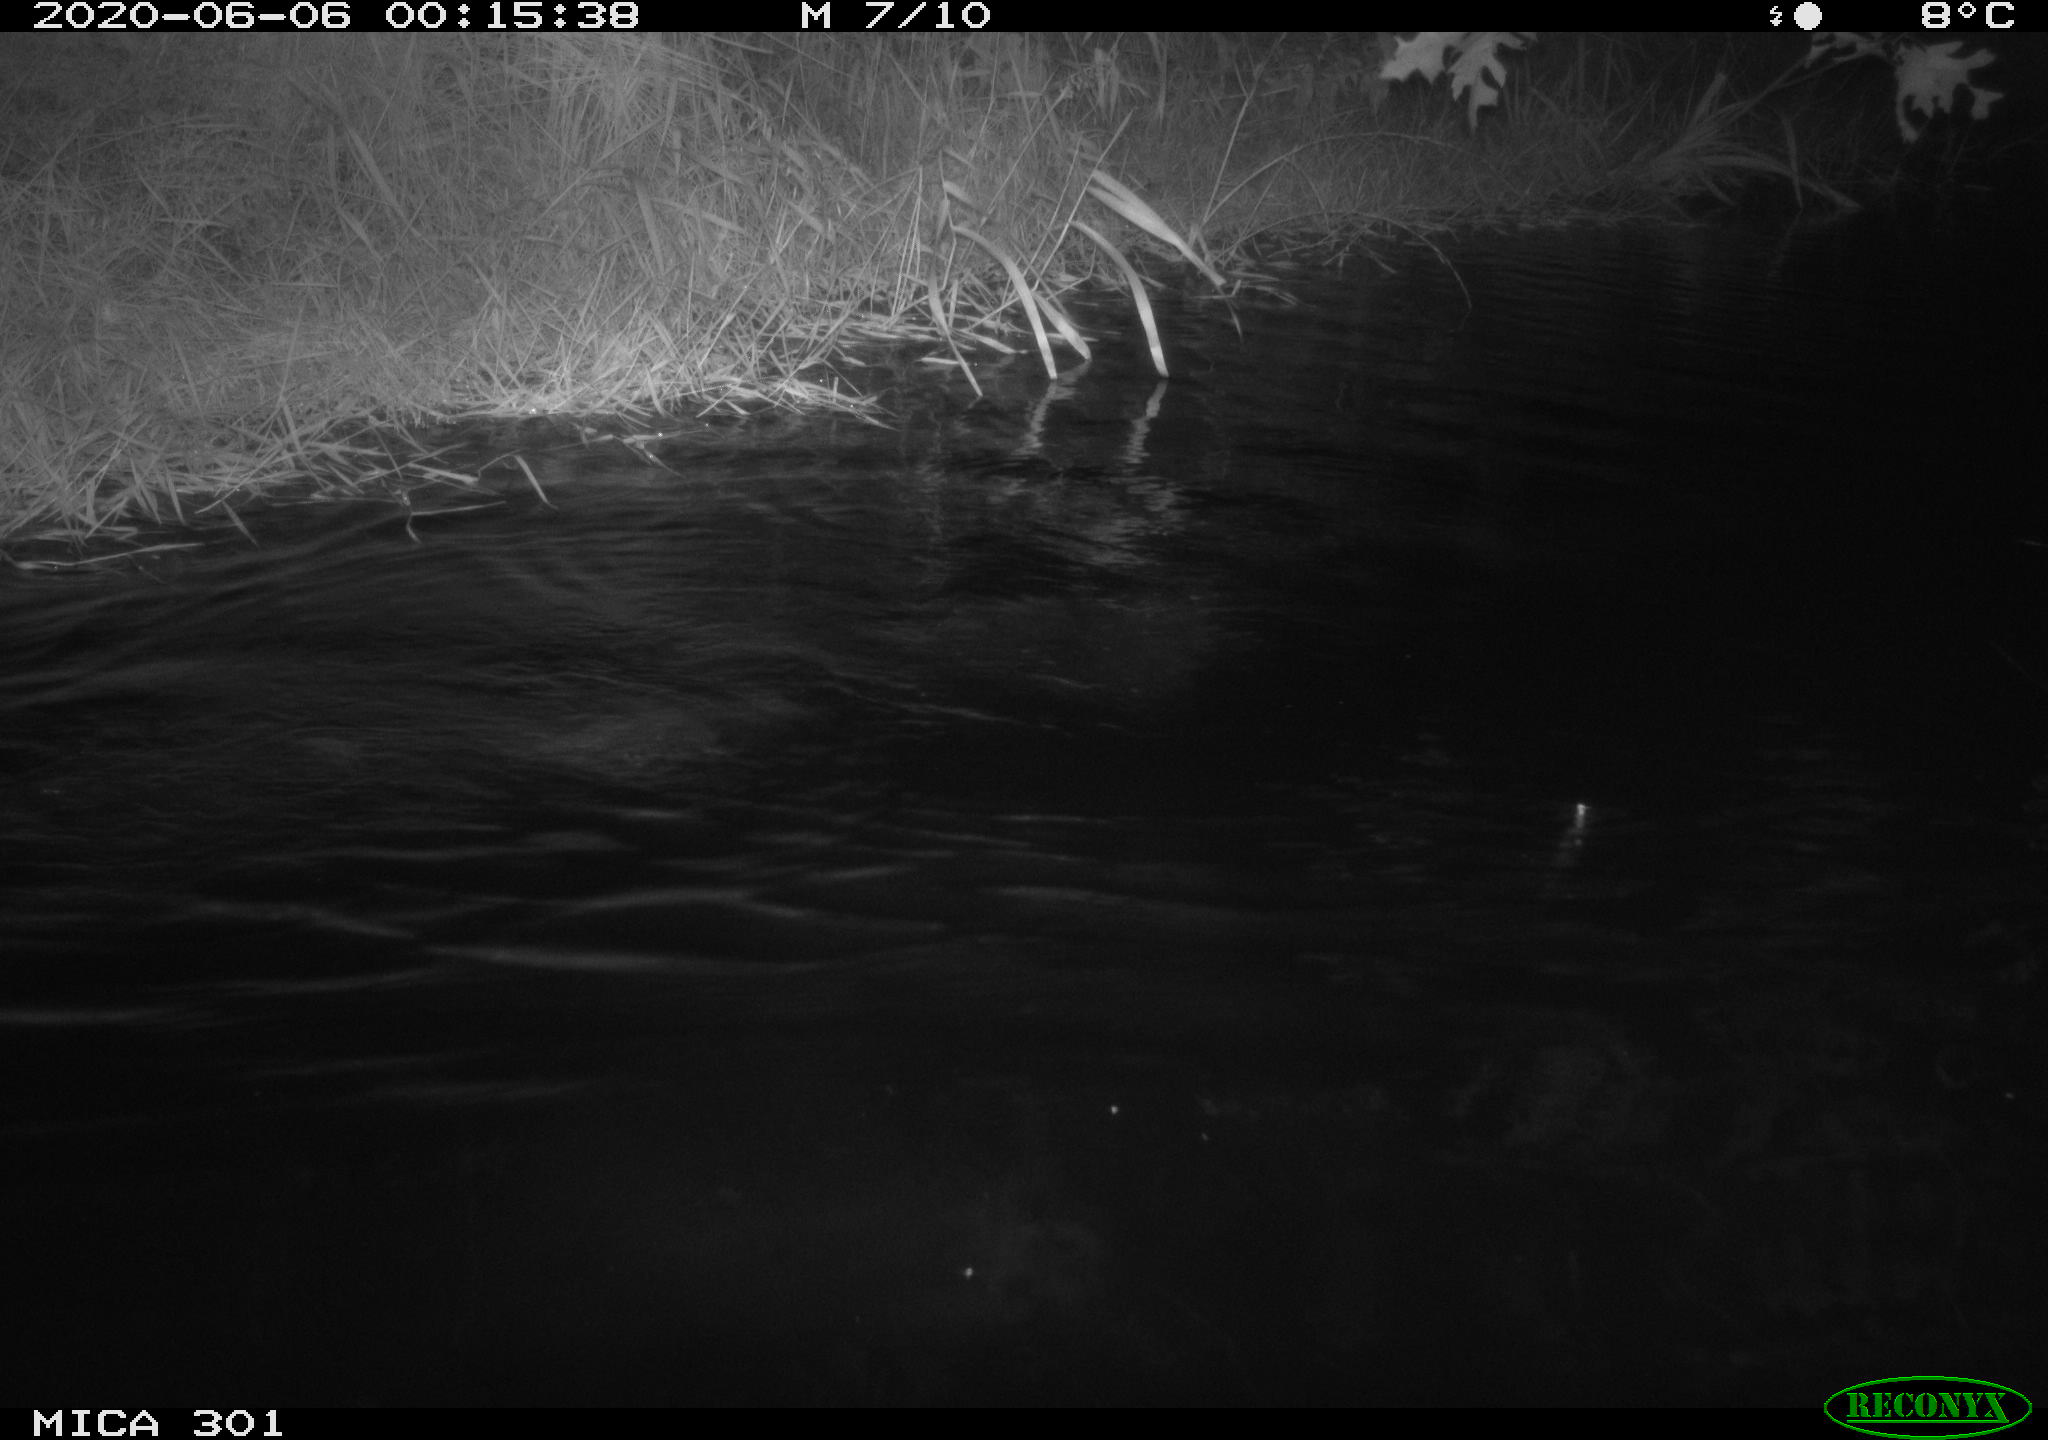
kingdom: Animalia
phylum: Chordata
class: Mammalia
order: Rodentia
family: Castoridae
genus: Castor
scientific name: Castor fiber
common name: Eurasian beaver
